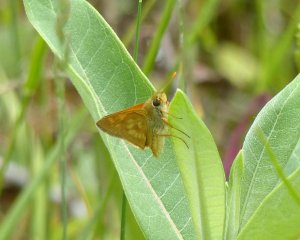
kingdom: Animalia
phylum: Arthropoda
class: Insecta
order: Lepidoptera
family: Hesperiidae
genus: Polites
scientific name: Polites
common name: Long Dash Skipper
